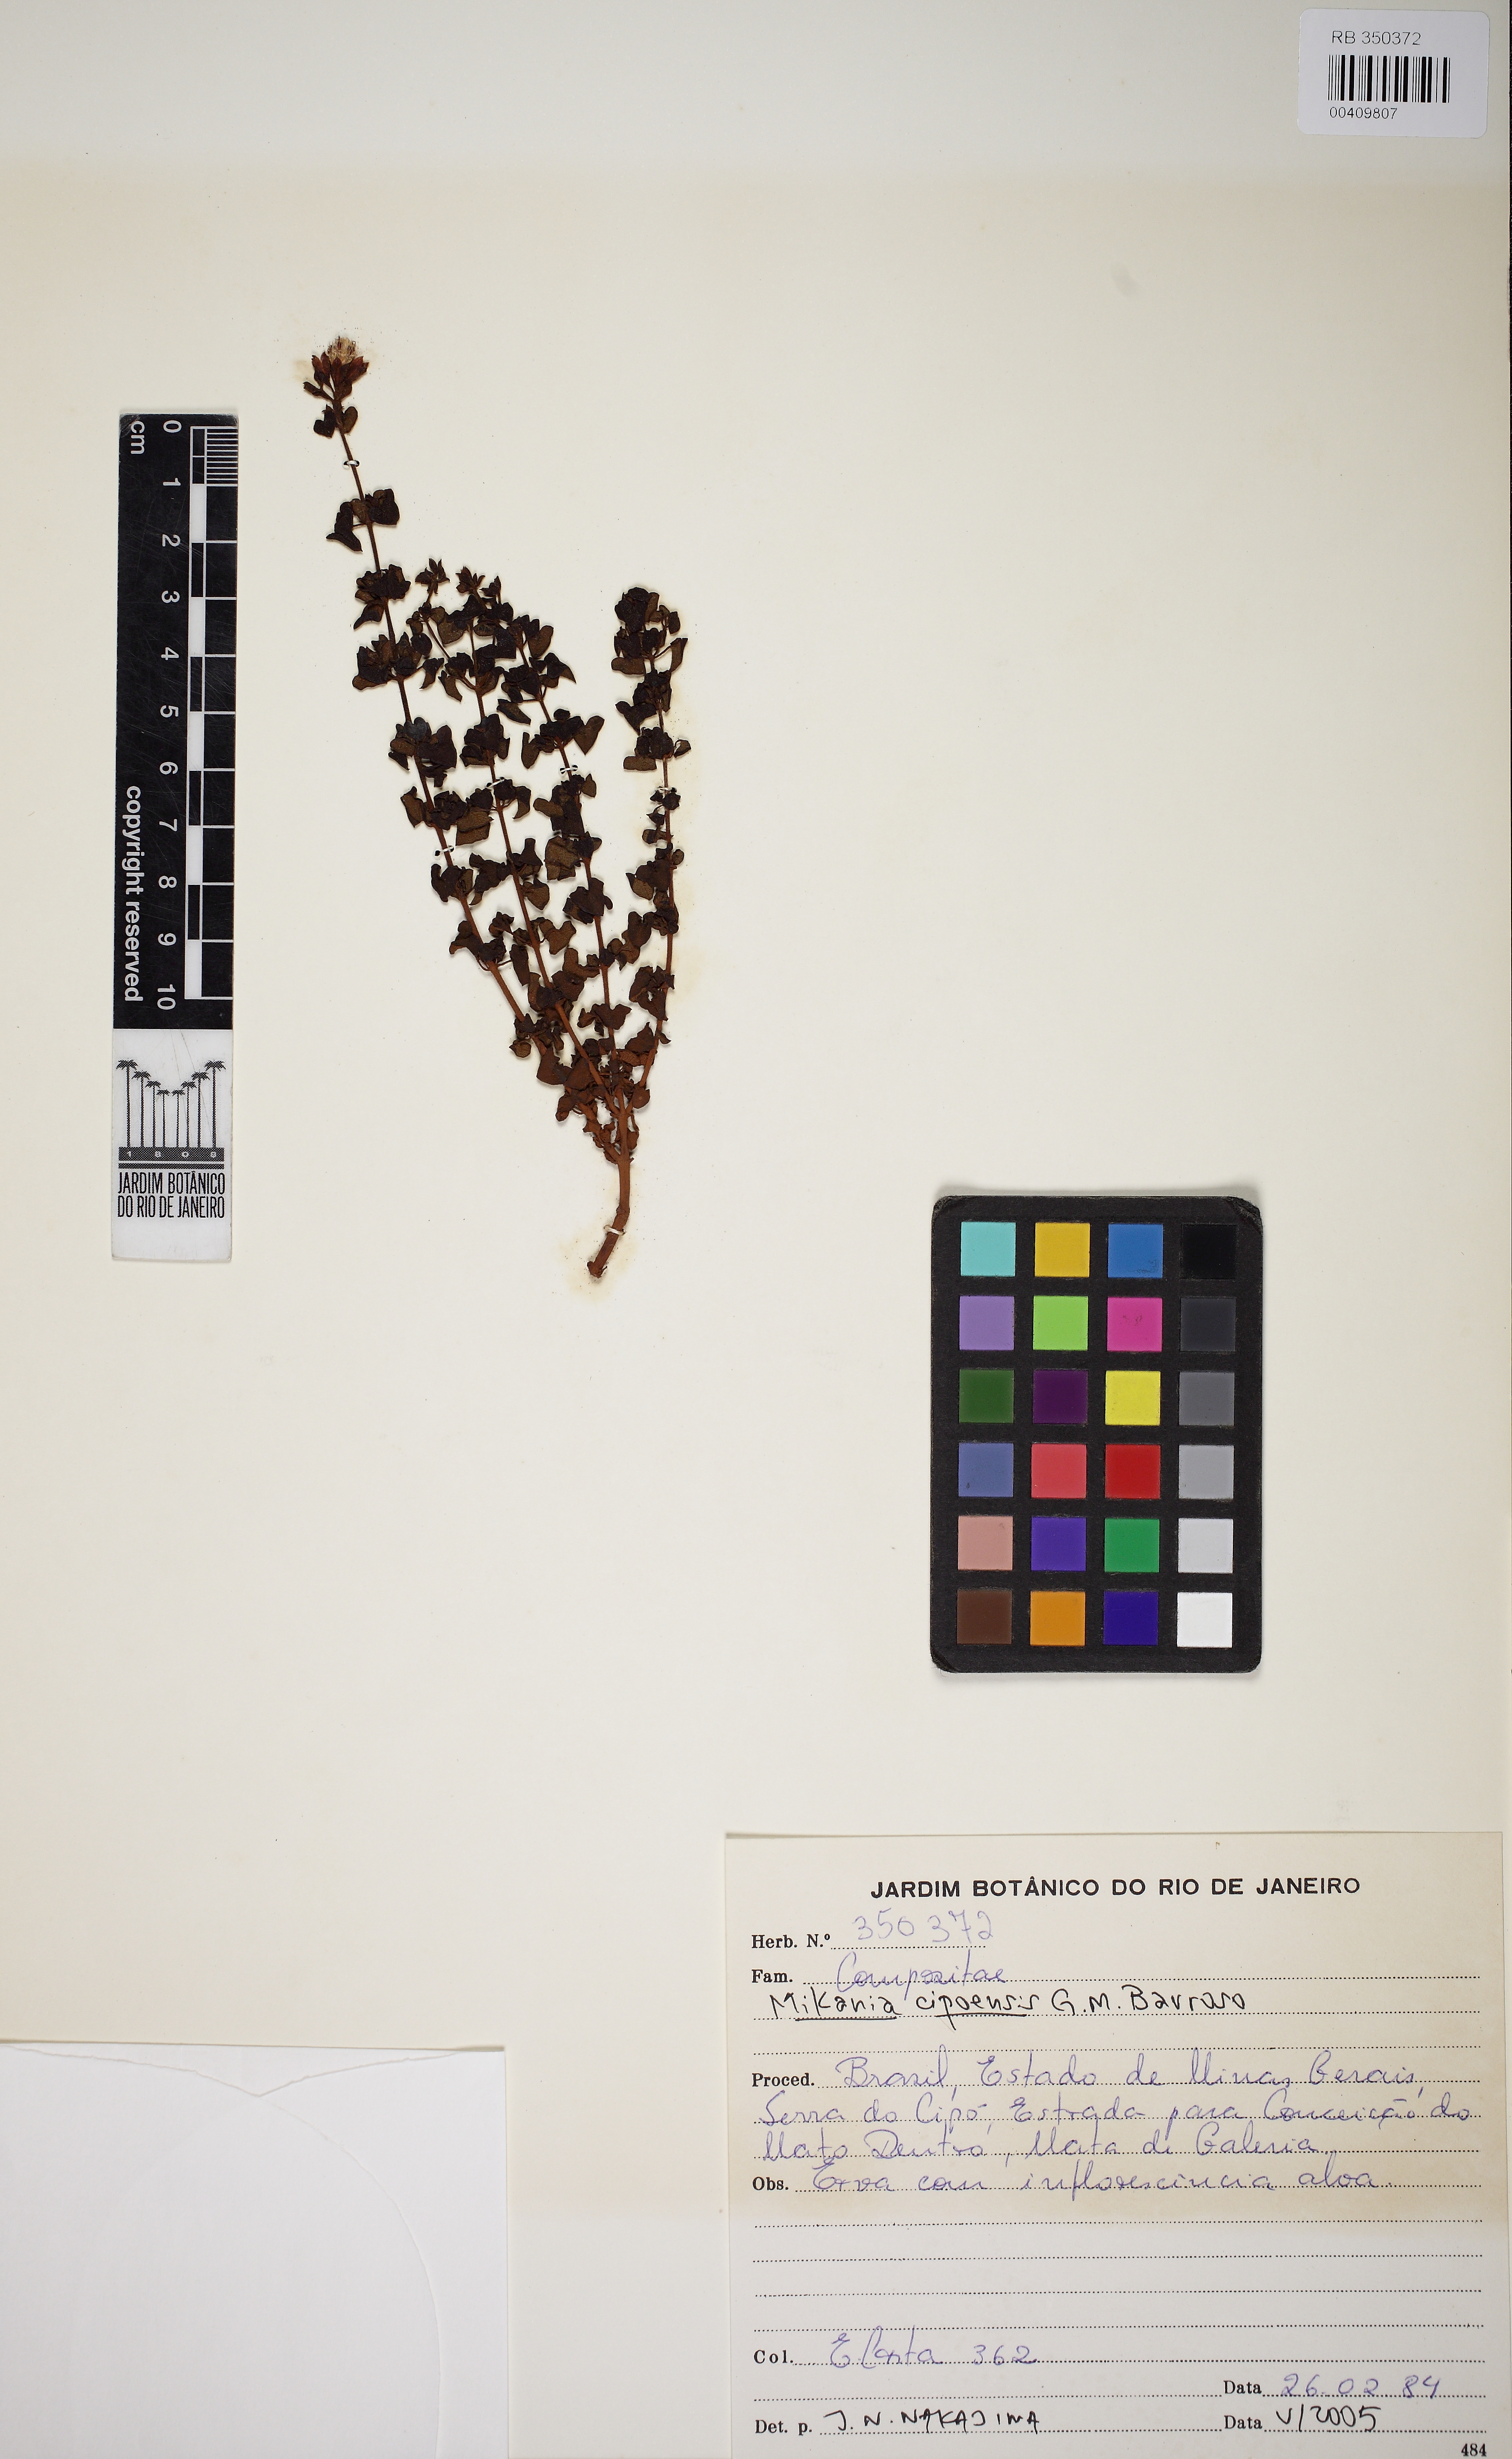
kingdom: Plantae
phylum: Tracheophyta
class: Magnoliopsida
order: Asterales
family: Asteraceae
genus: Mikania
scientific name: Mikania cipoensis
